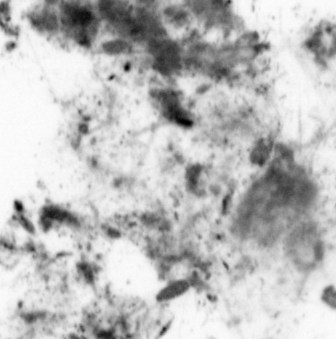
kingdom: Animalia
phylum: Chordata
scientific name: Chordata
